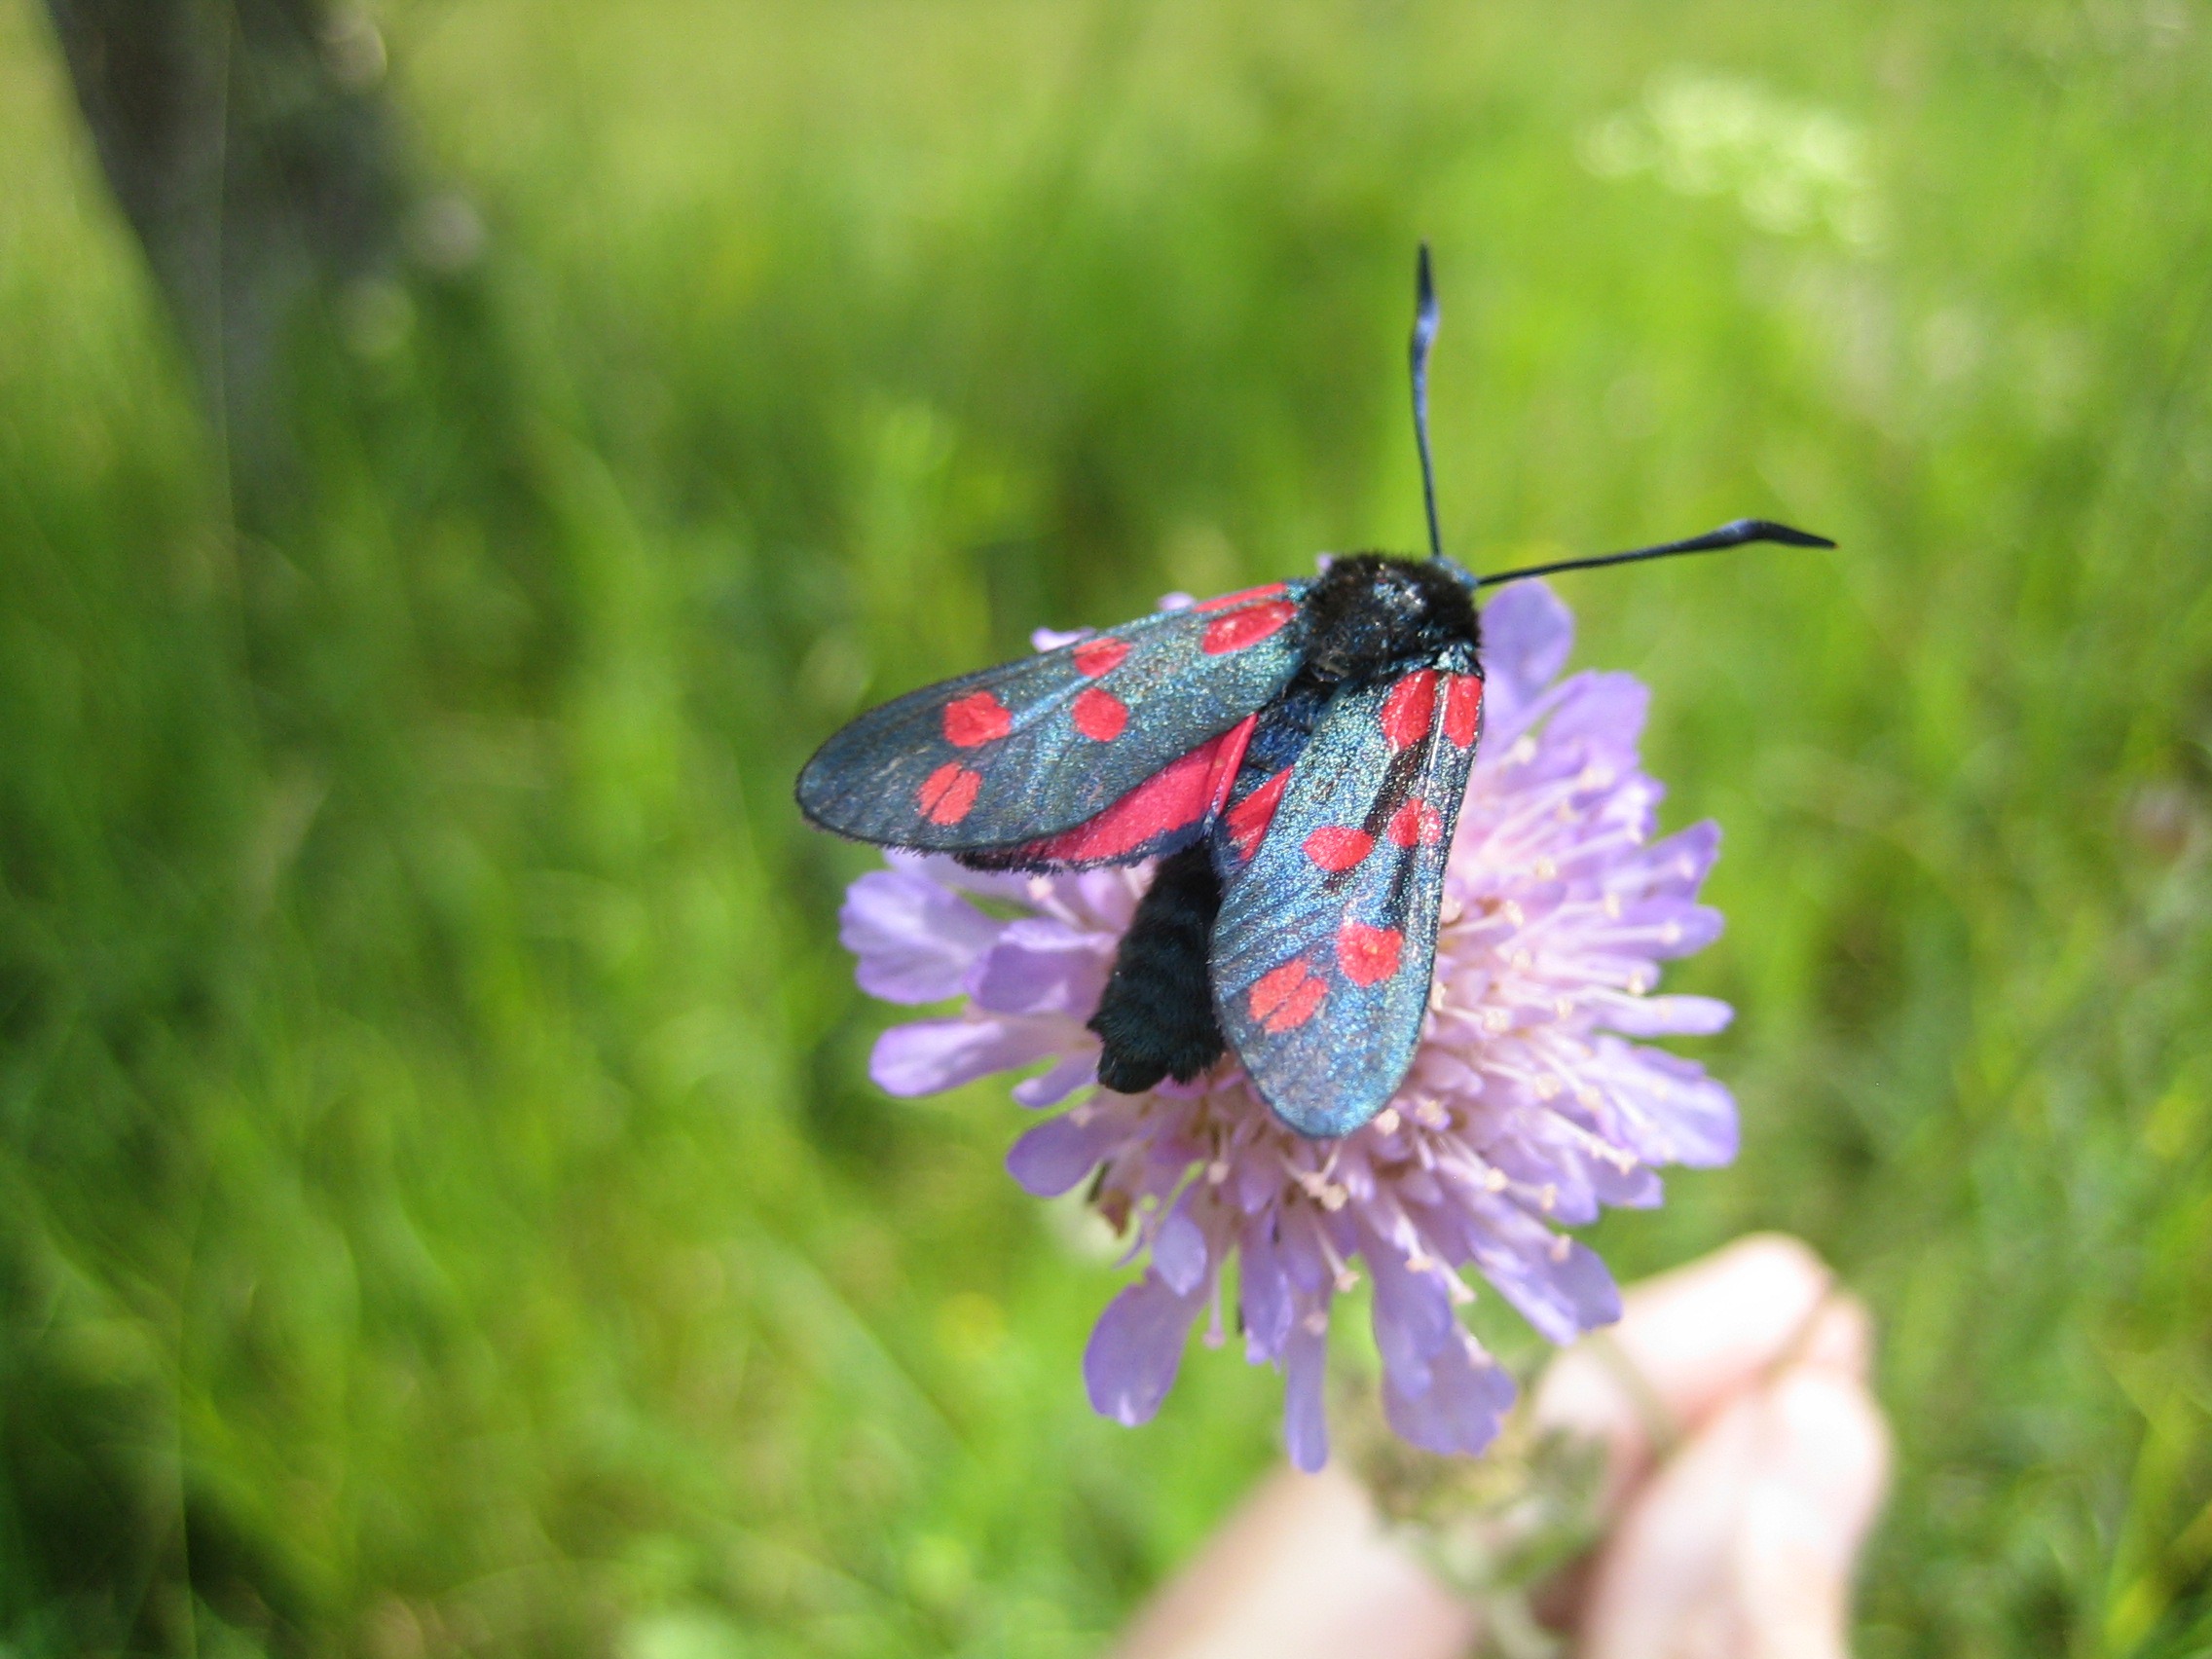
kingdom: Animalia
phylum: Arthropoda
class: Insecta
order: Lepidoptera
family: Zygaenidae
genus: Zygaena
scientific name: Zygaena filipendulae
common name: Seksplettet køllesværmer
